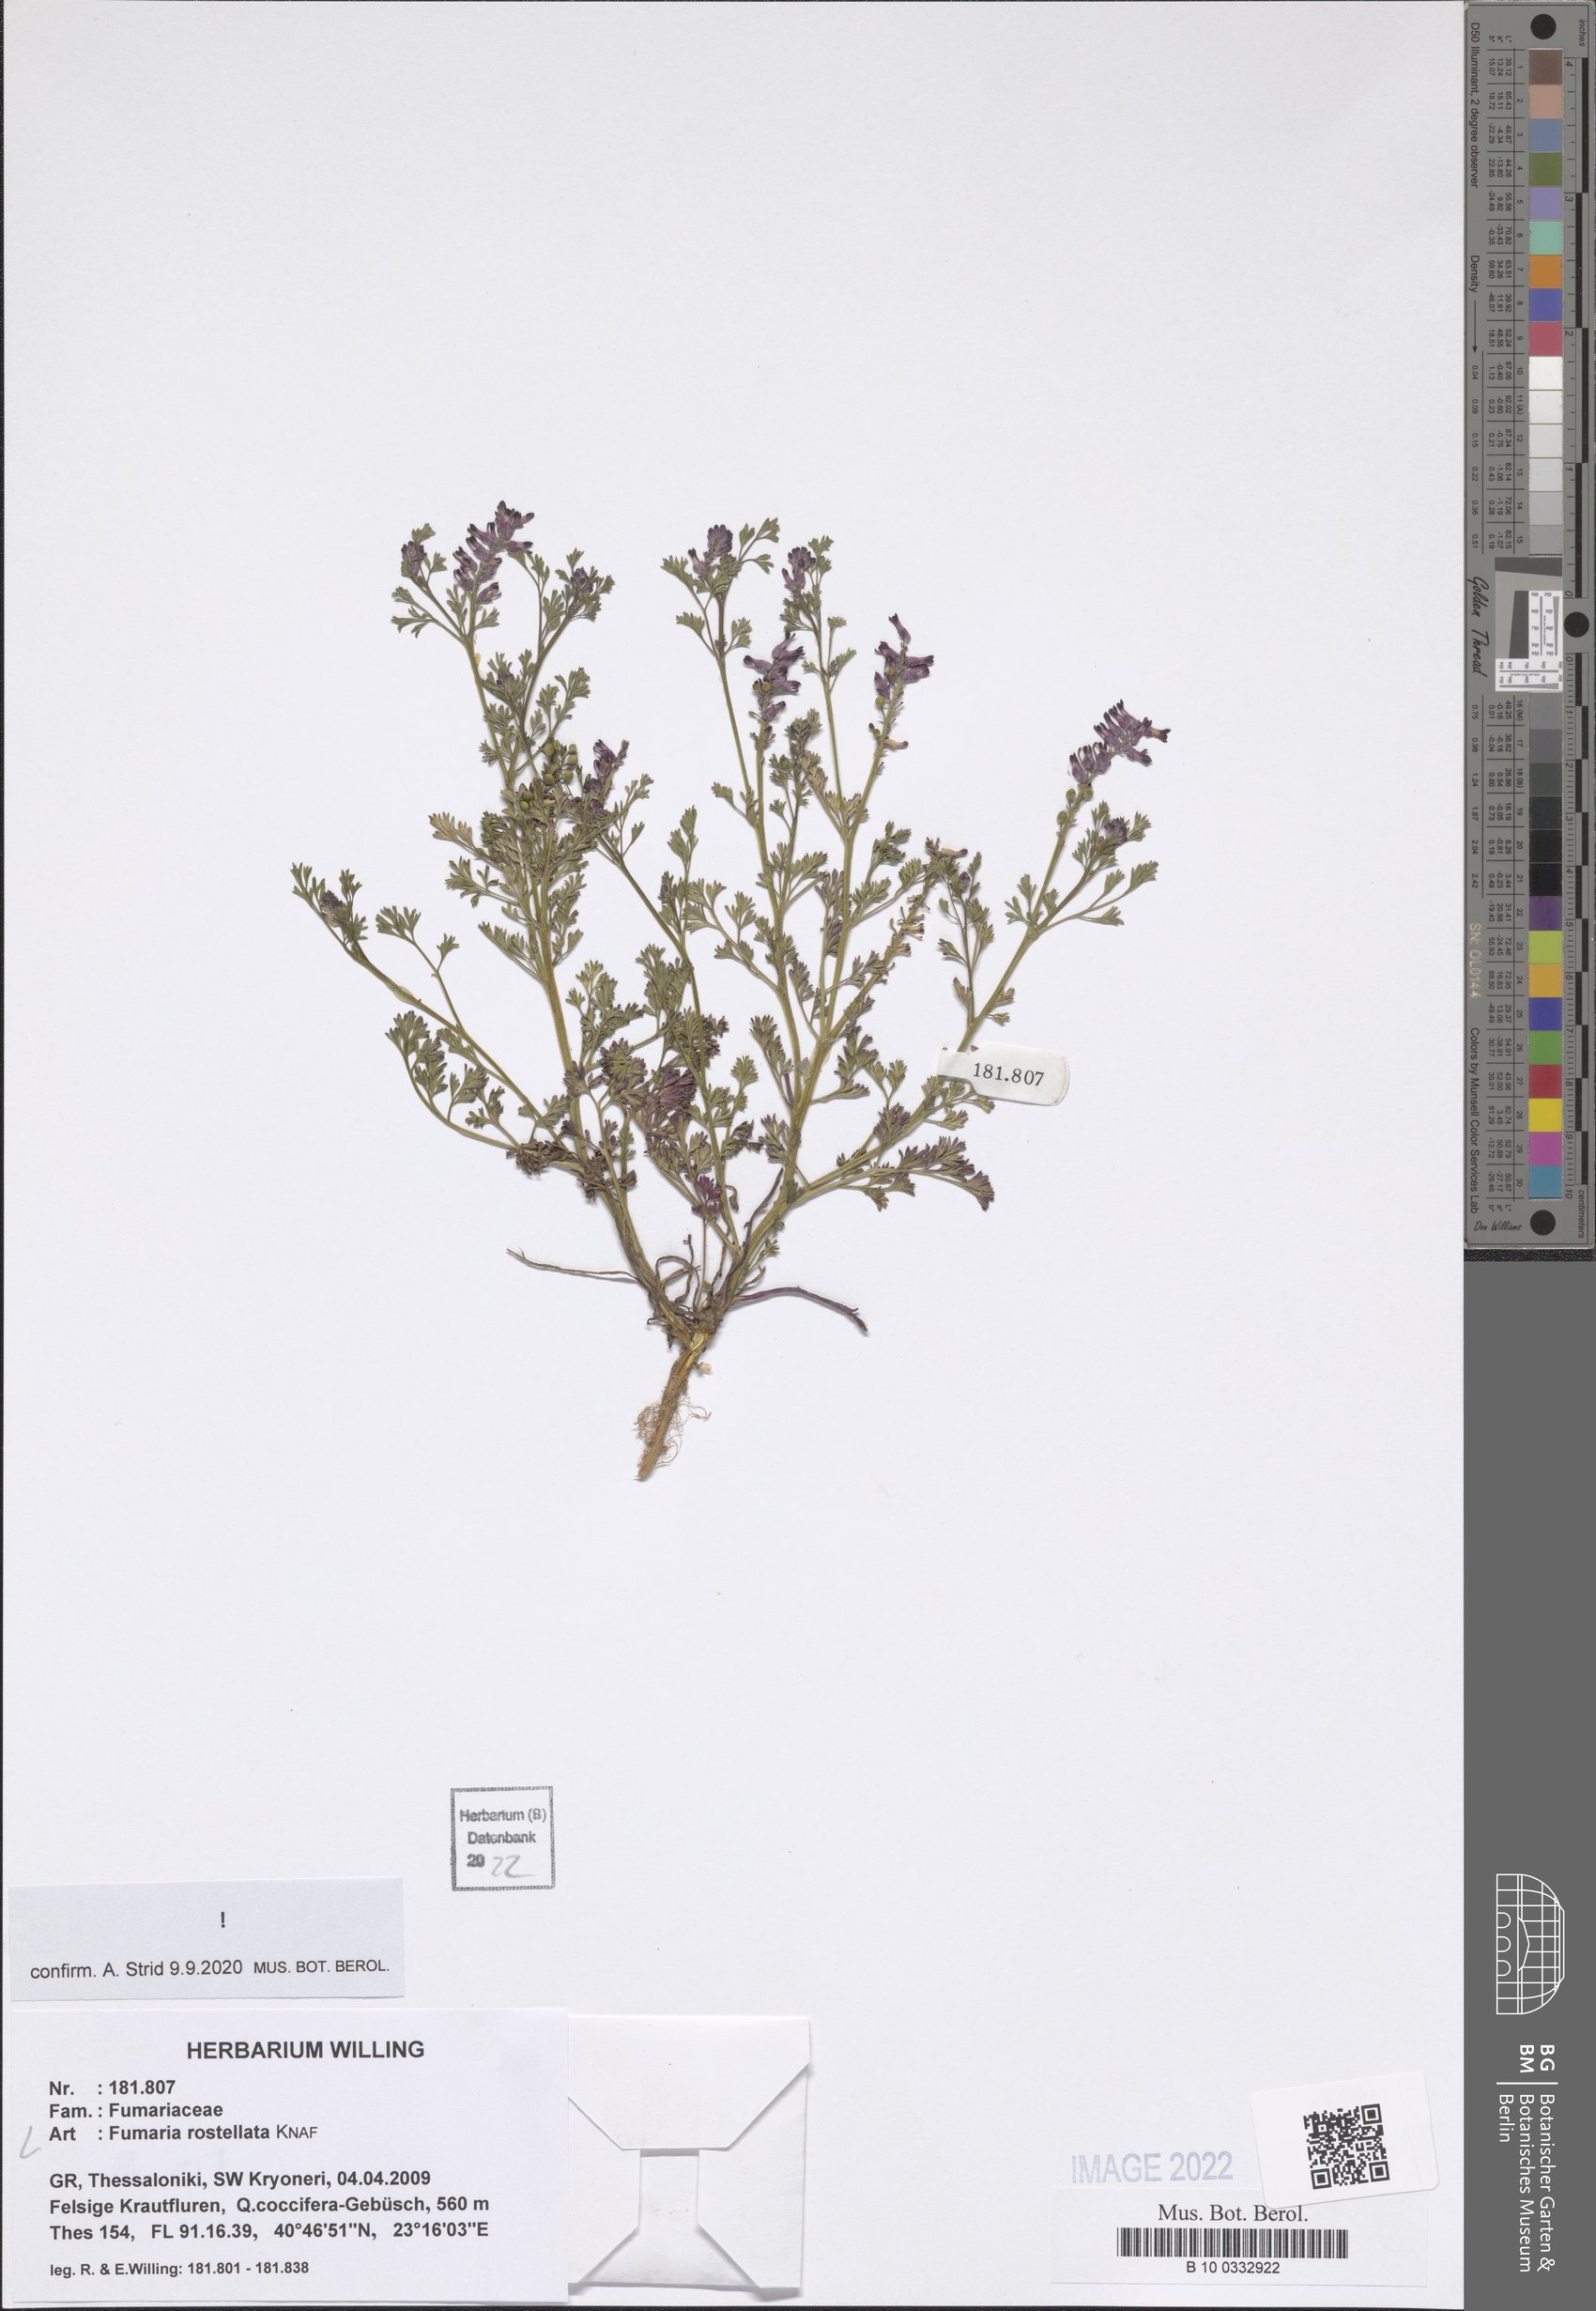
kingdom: Plantae
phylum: Tracheophyta
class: Magnoliopsida
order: Ranunculales
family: Papaveraceae
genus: Fumaria
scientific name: Fumaria rostellata
